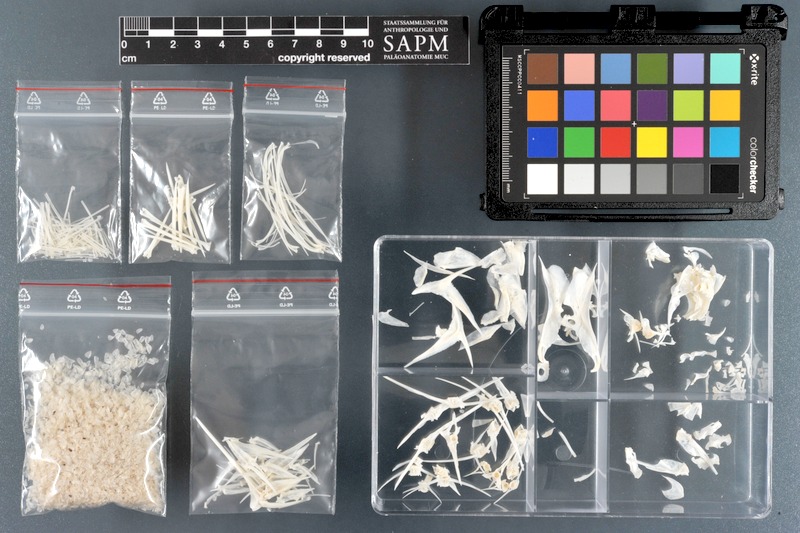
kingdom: Animalia
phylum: Chordata
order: Perciformes
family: Pomacanthidae
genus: Pomacanthus
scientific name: Pomacanthus imperator
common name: Emperor angelfish
